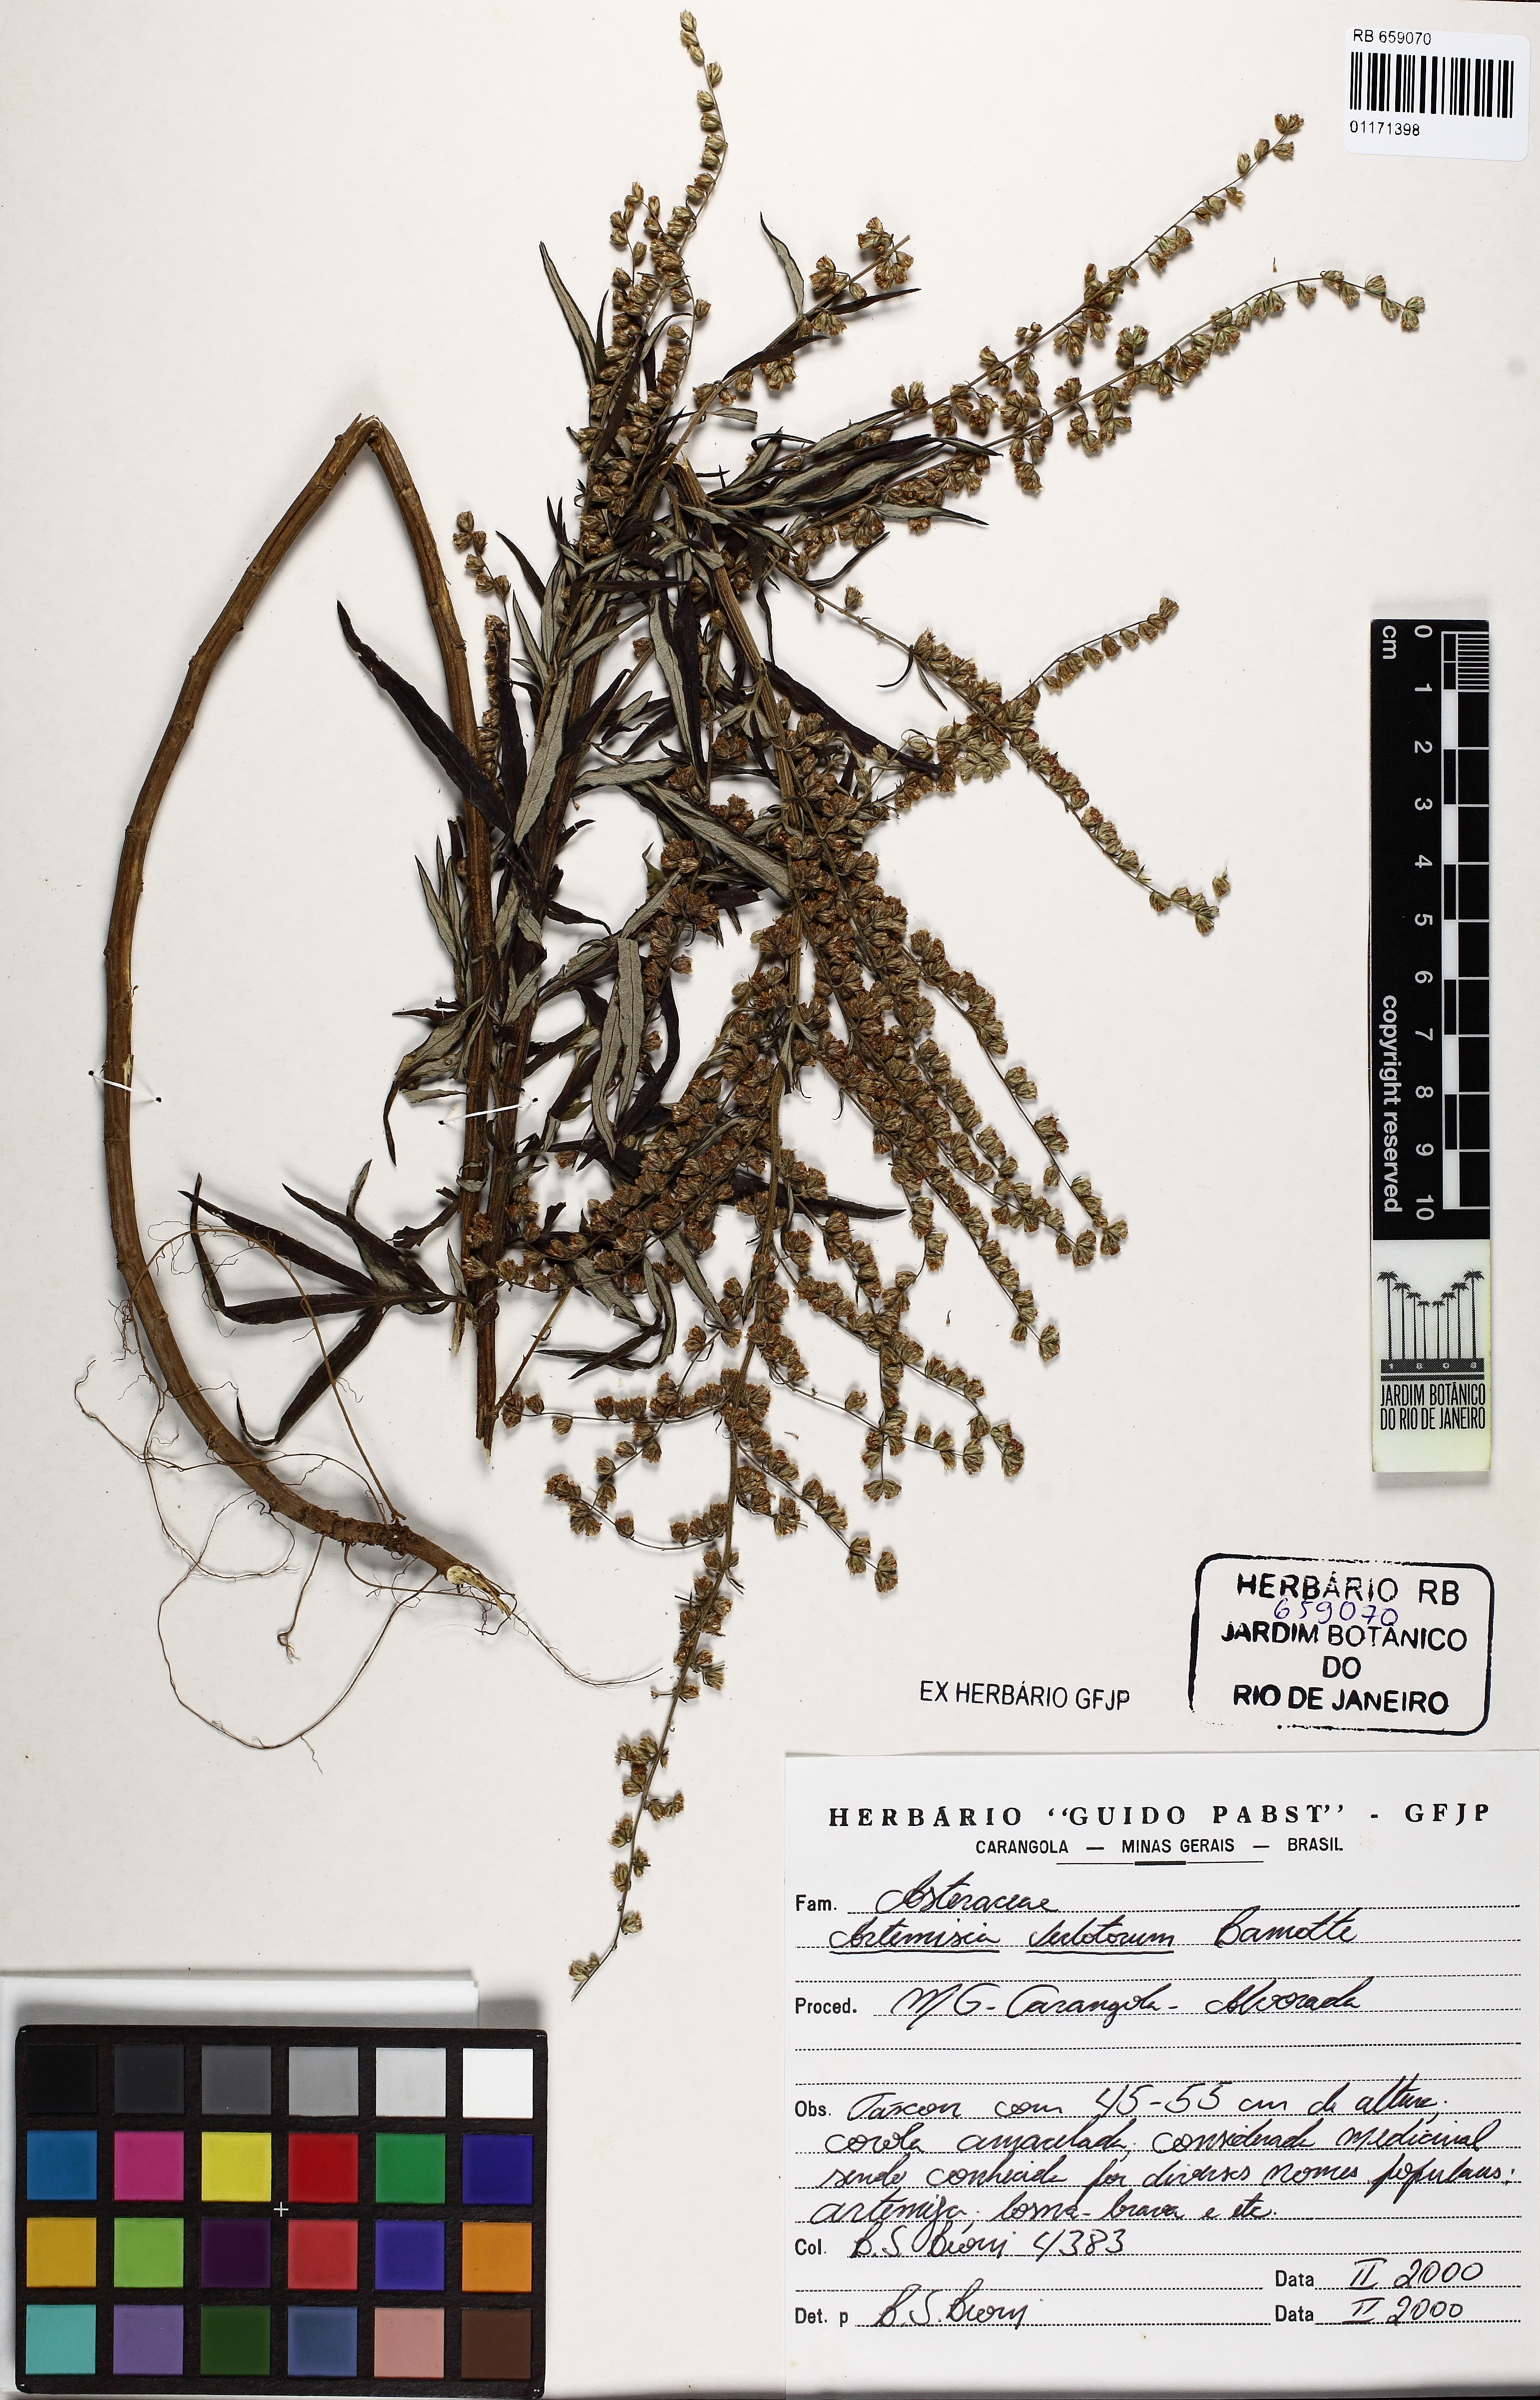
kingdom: Plantae
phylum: Tracheophyta
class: Magnoliopsida
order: Asterales
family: Asteraceae
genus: Artemisia
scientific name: Artemisia verlotiorum
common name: Chinese mugwort
